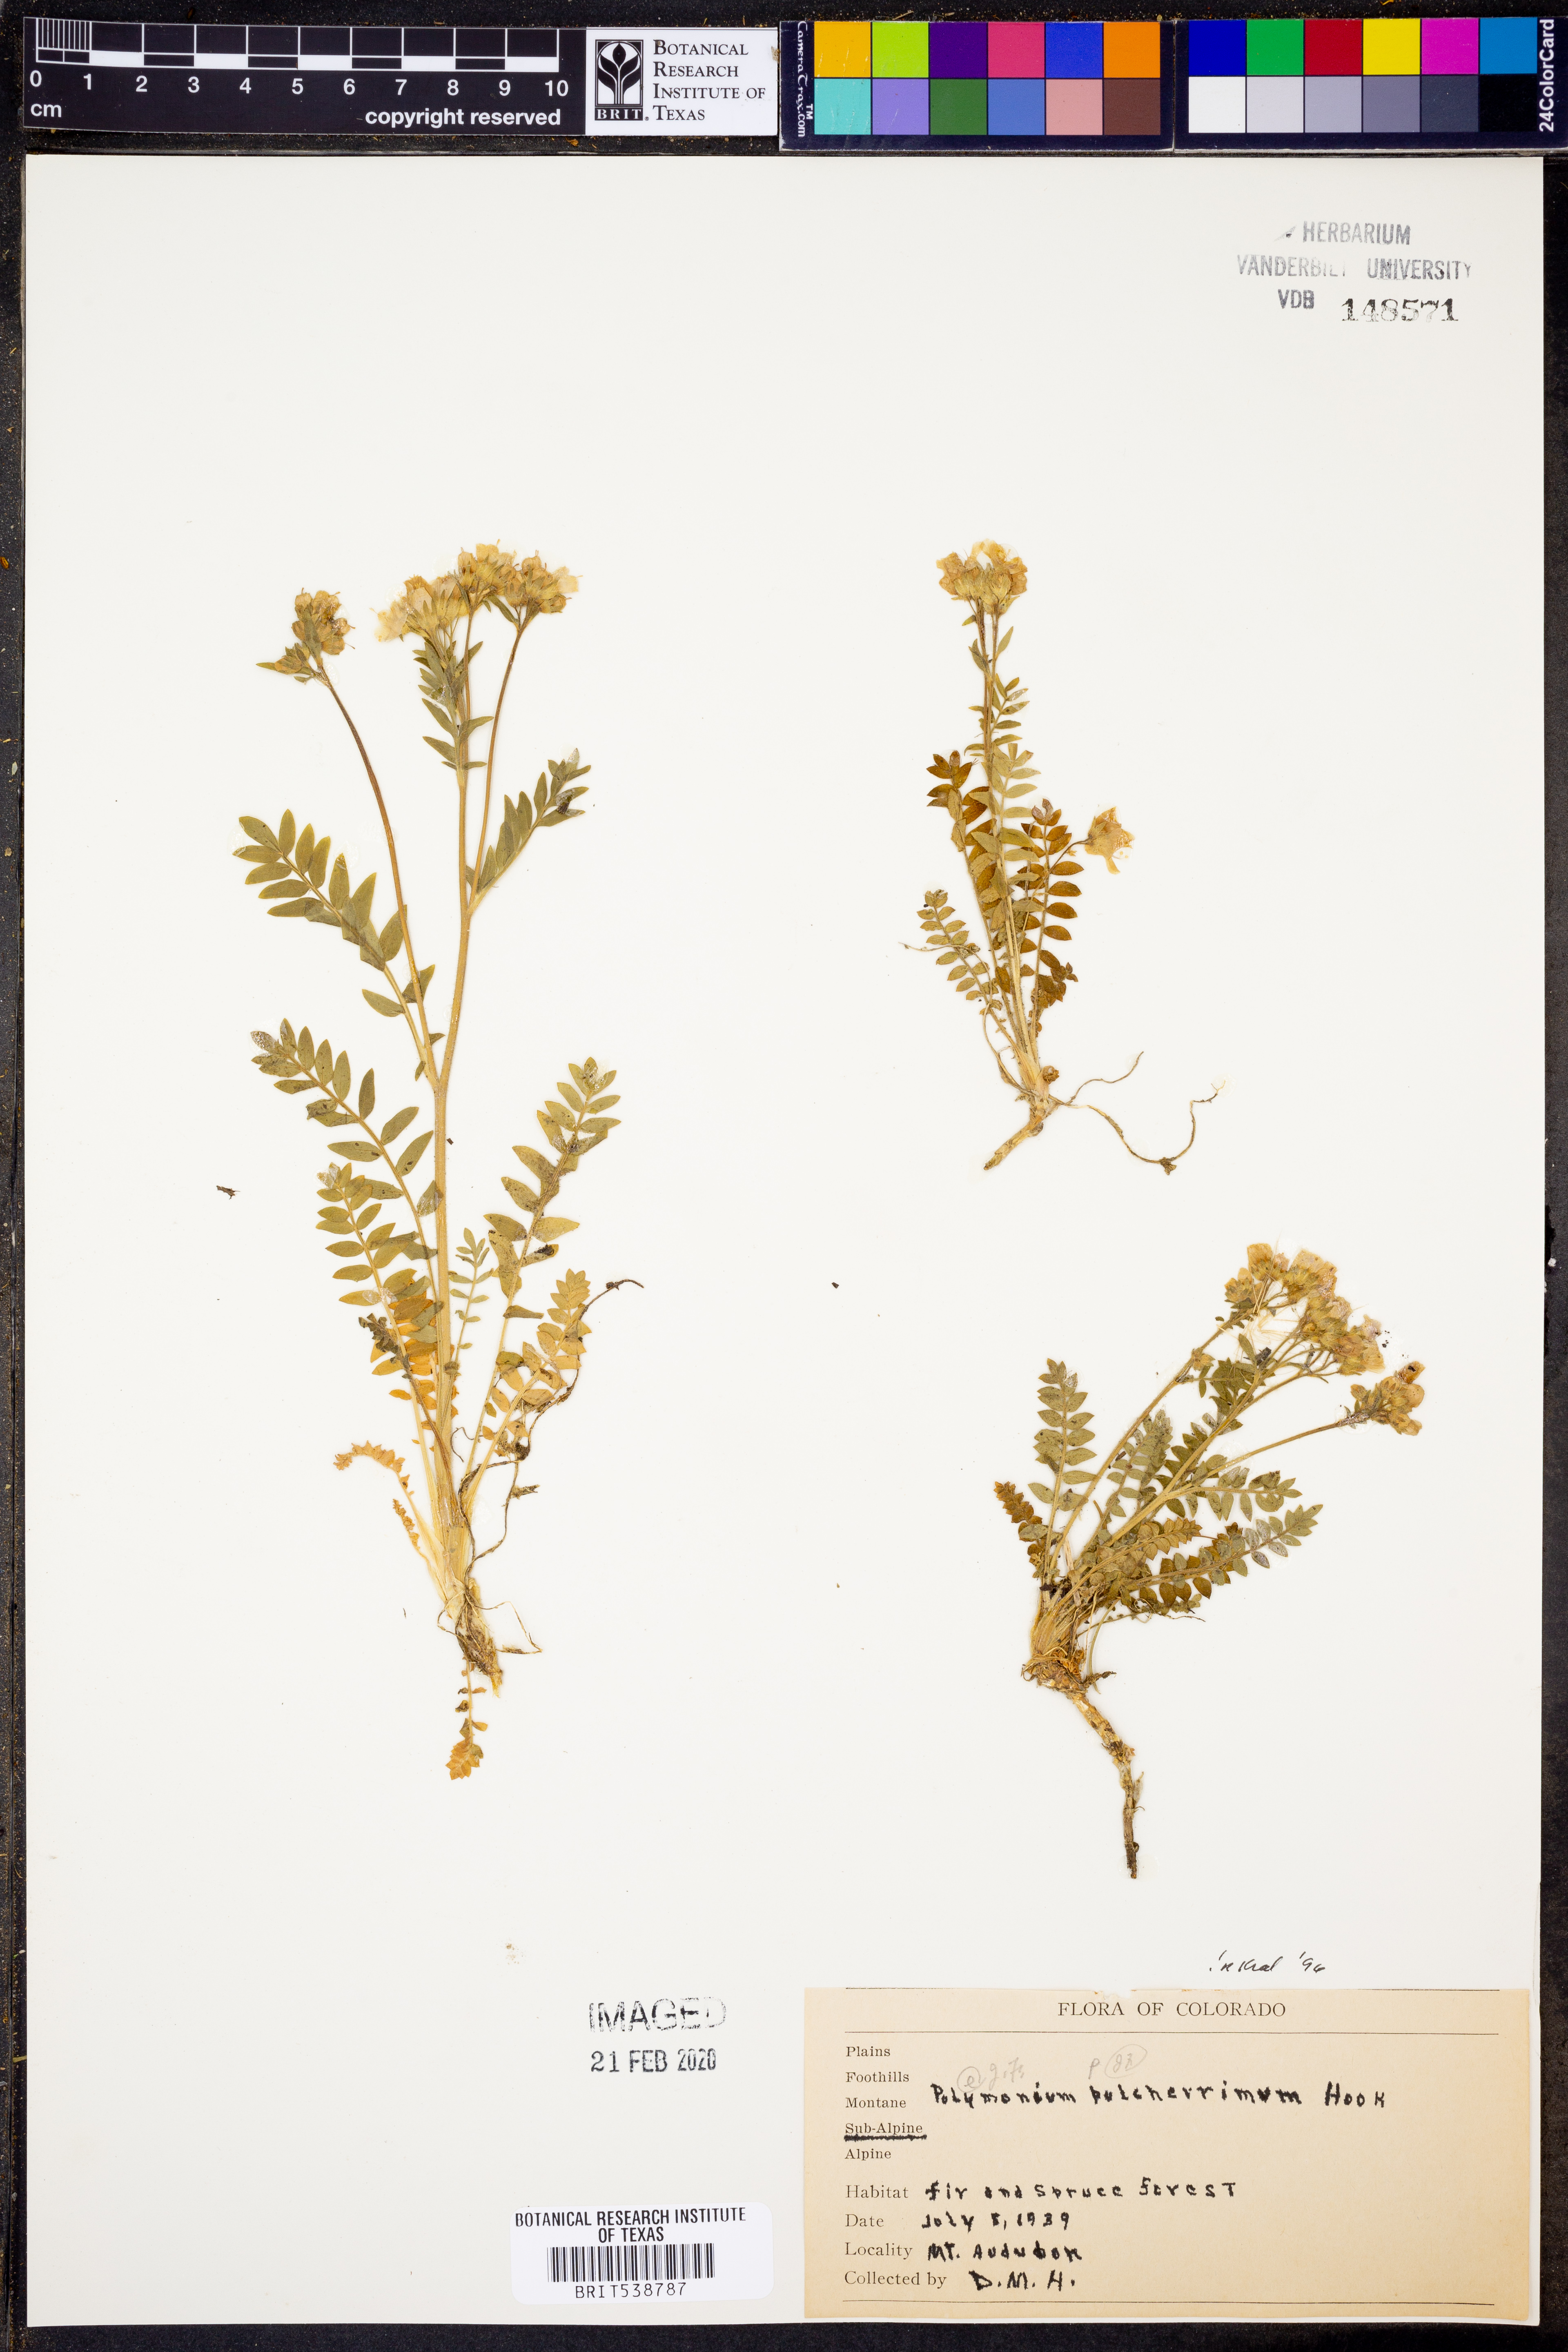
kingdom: Plantae
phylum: Tracheophyta
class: Magnoliopsida
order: Ericales
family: Polemoniaceae
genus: Polemonium
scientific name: Polemonium pulcherrimum
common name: Short jacob's-ladder
